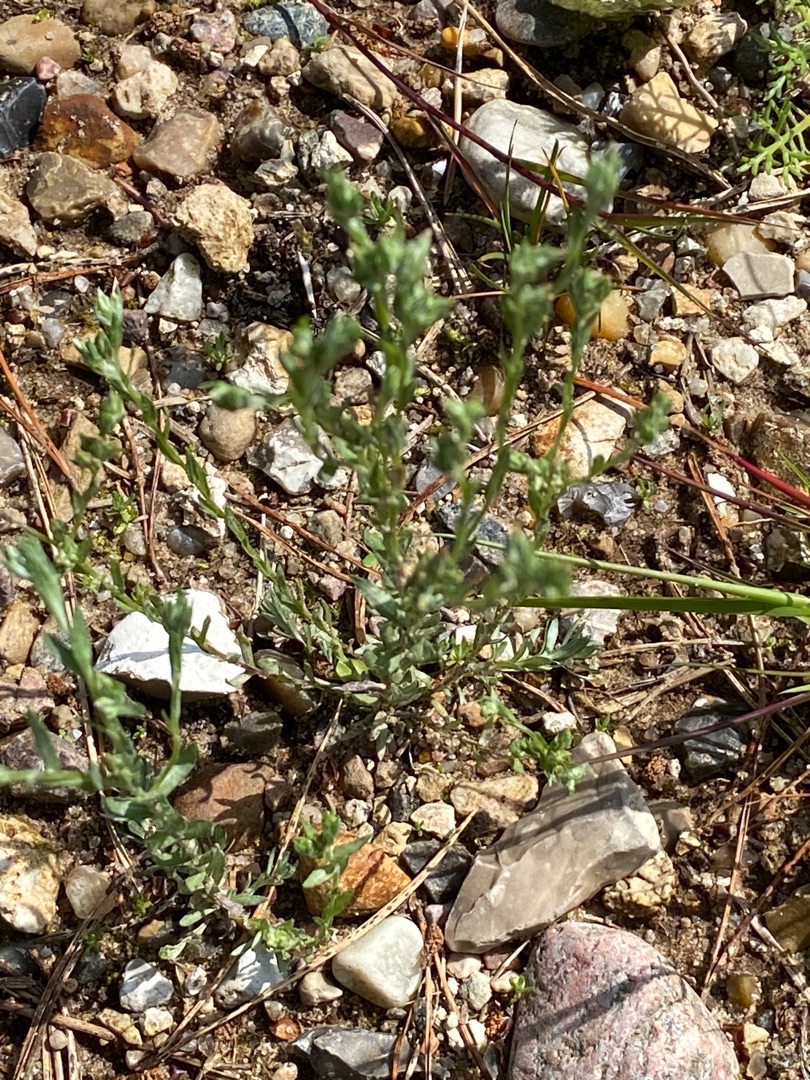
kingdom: Plantae
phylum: Tracheophyta
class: Magnoliopsida
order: Asterales
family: Asteraceae
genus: Logfia
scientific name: Logfia minima
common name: Liden museurt
